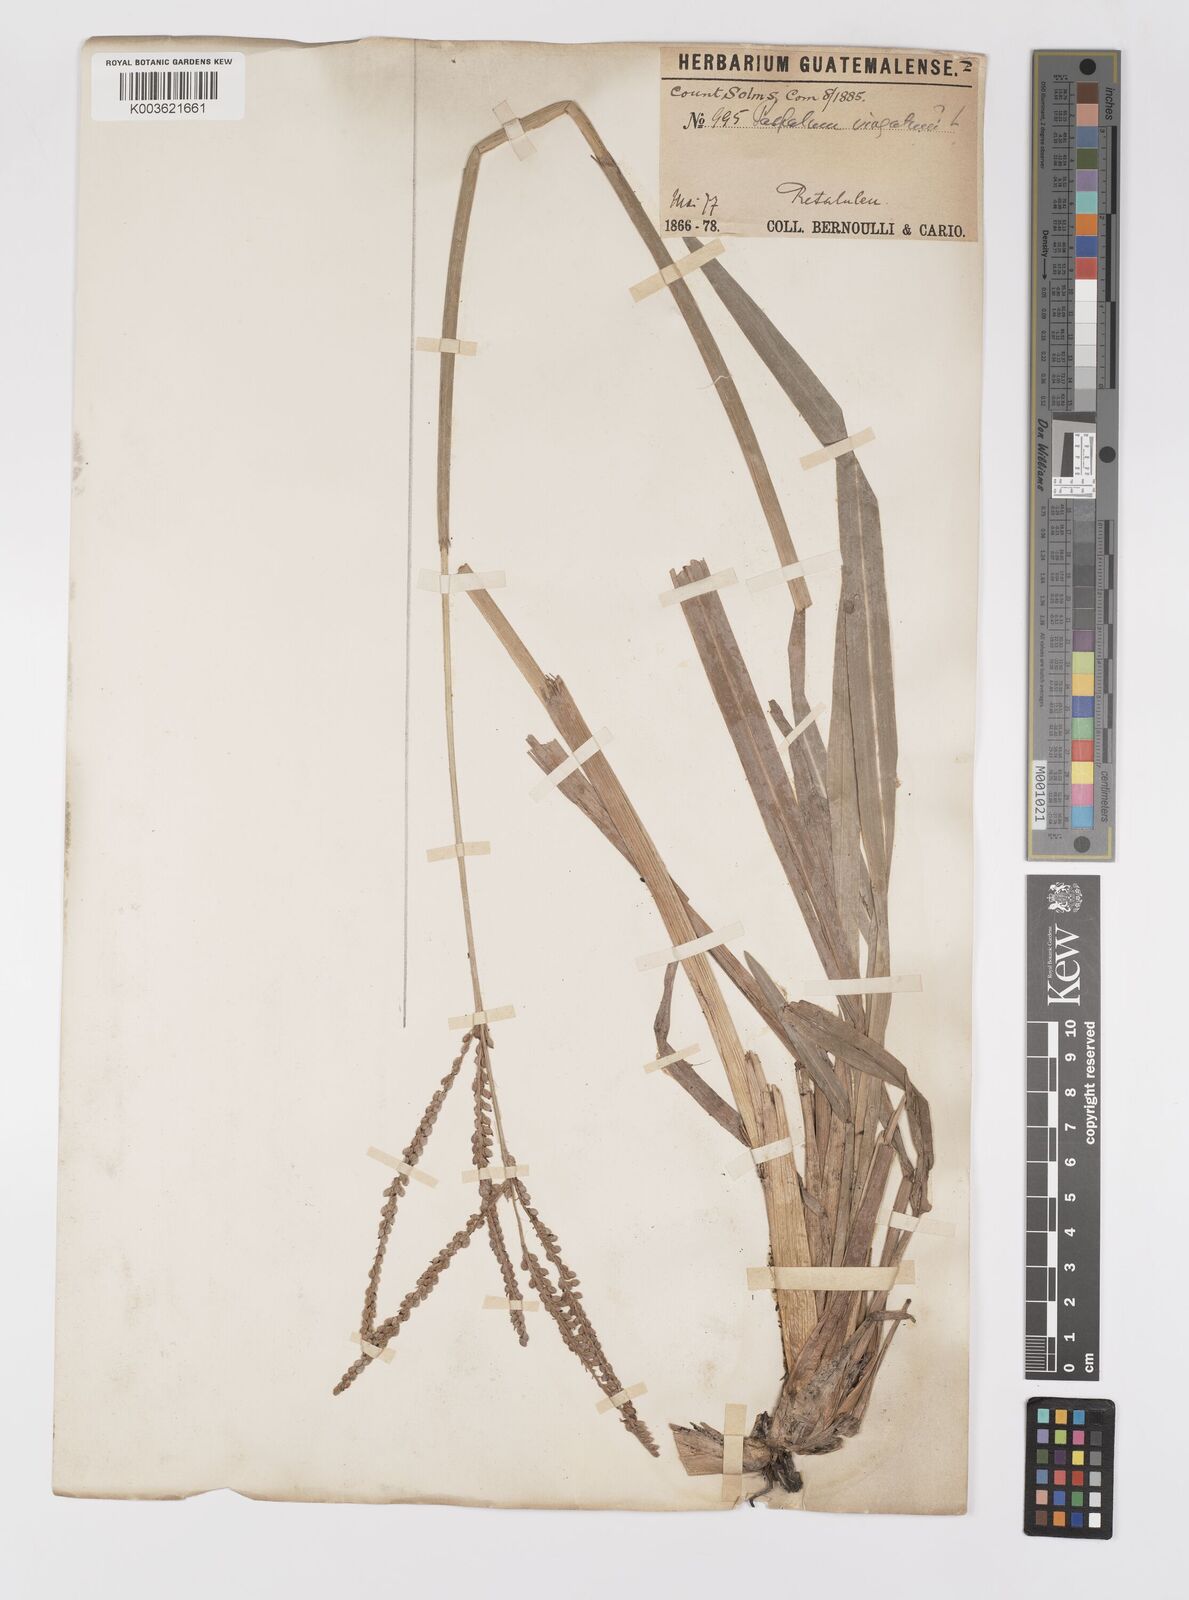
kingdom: Plantae
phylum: Tracheophyta
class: Liliopsida
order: Poales
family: Poaceae
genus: Paspalum
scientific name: Paspalum virgatum
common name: Talquezal
